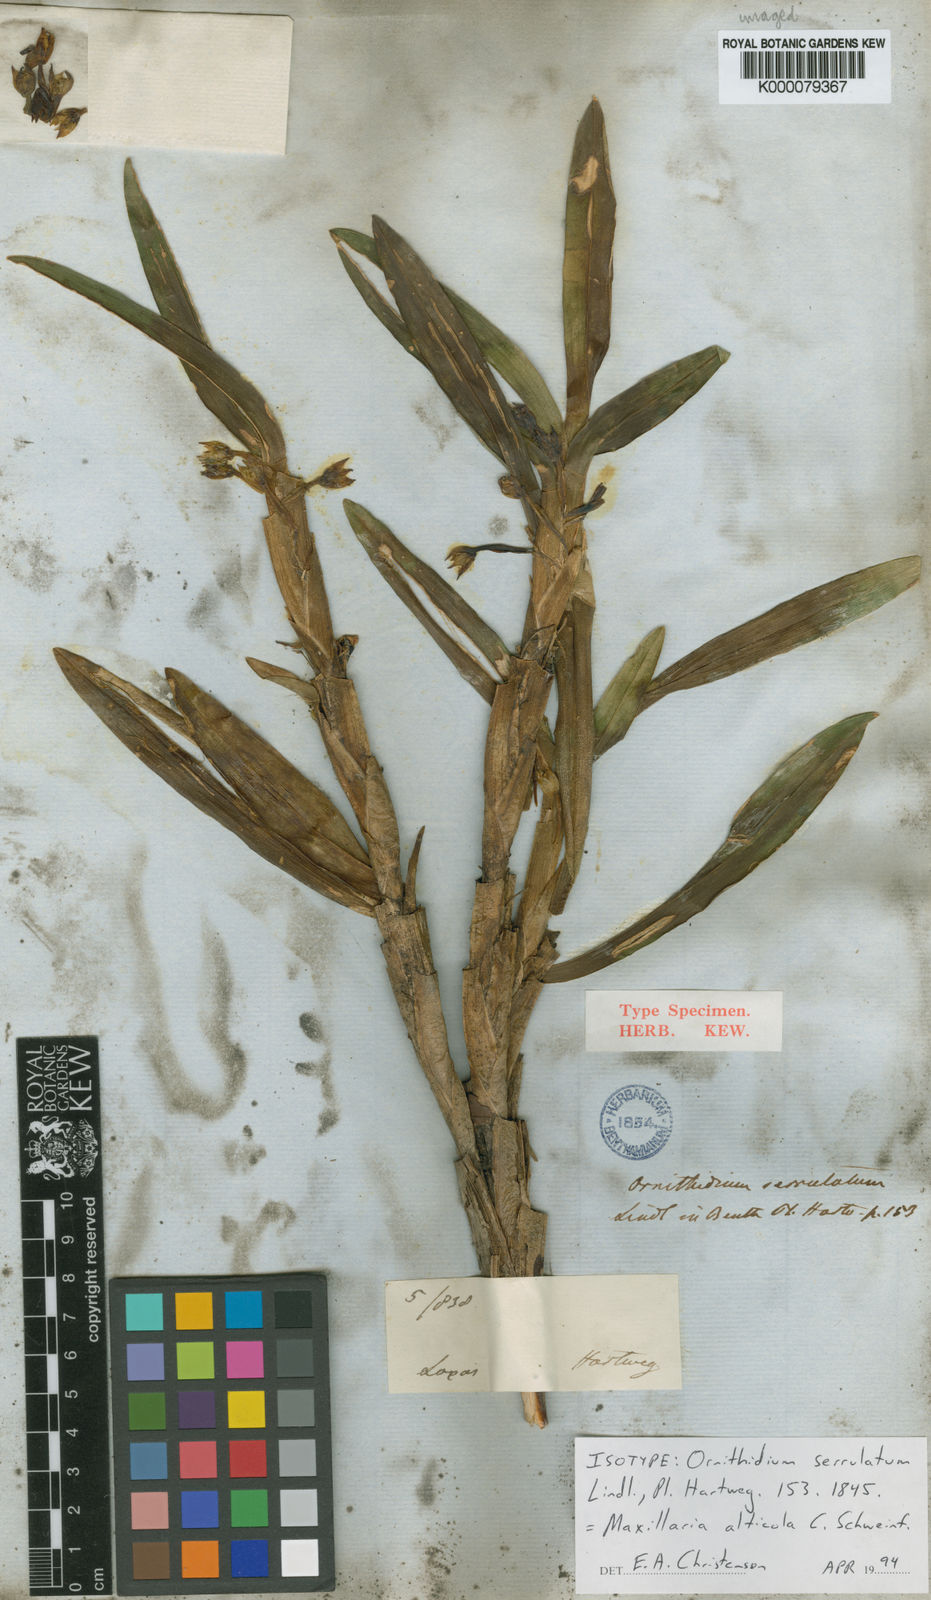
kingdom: Plantae
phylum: Tracheophyta
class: Liliopsida
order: Asparagales
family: Orchidaceae
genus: Maxillaria
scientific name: Maxillaria alticola
